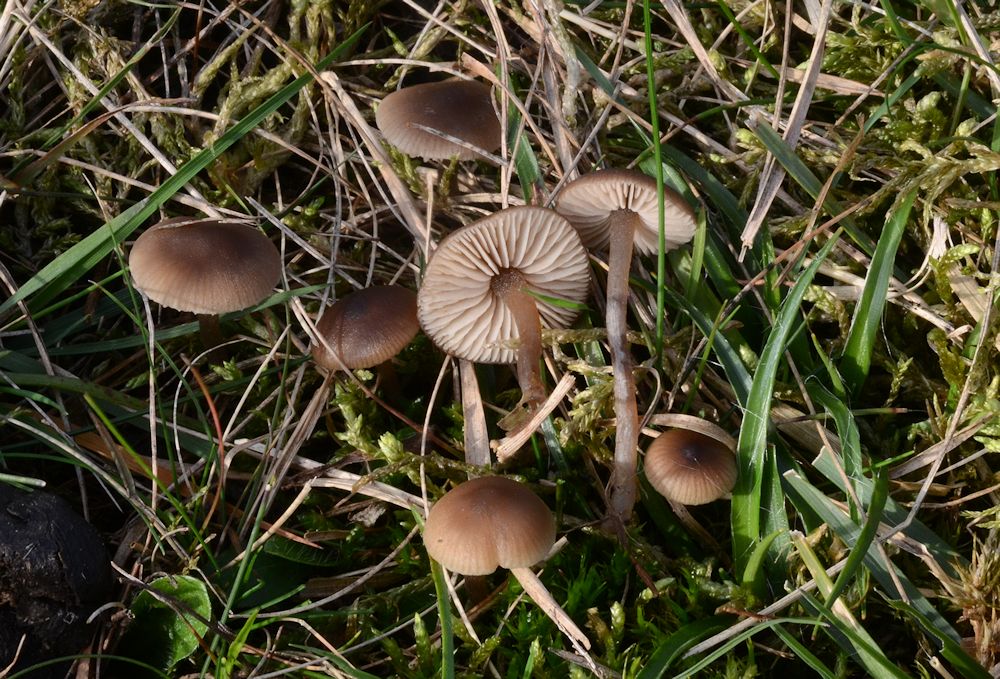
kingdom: Fungi
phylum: Basidiomycota
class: Agaricomycetes
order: Agaricales
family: Lyophyllaceae
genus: Sagaranella
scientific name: Sagaranella tylicolor
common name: kvælstof-gråblad
